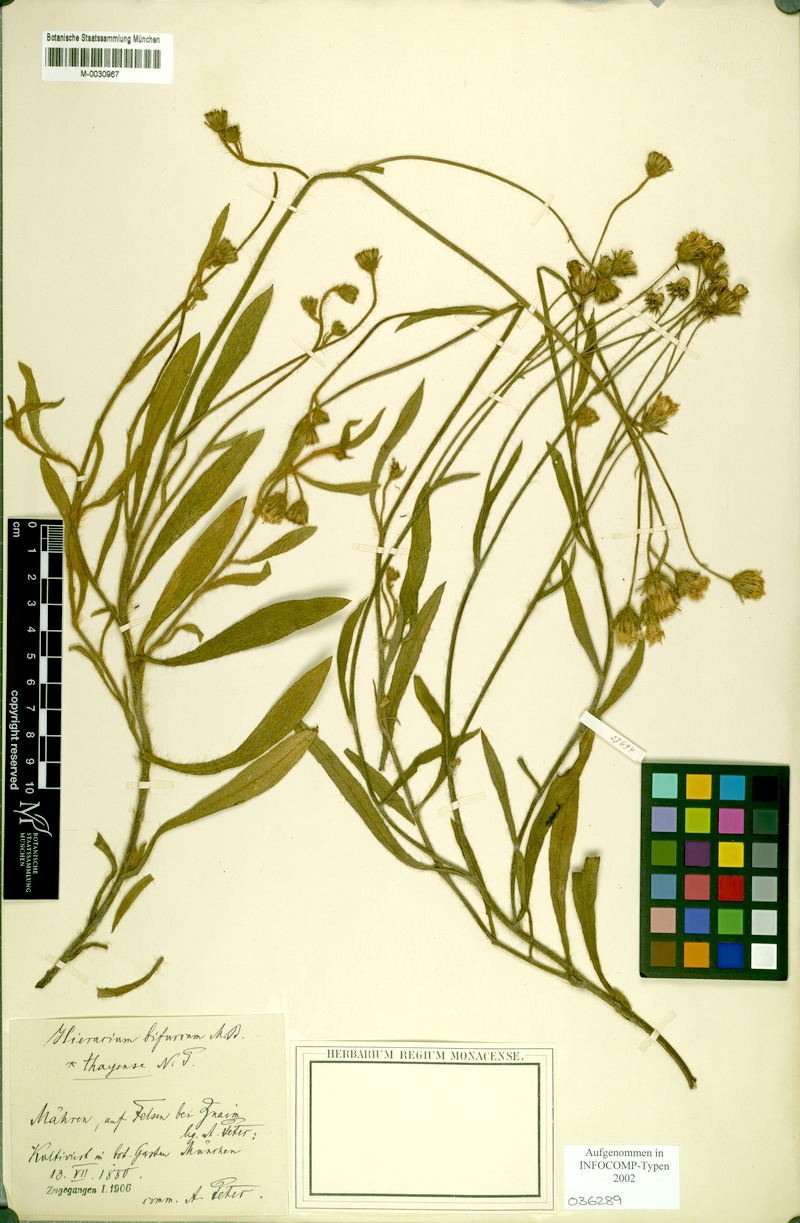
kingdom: Plantae
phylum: Tracheophyta
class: Magnoliopsida
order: Asterales
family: Asteraceae
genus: Pilosella
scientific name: Pilosella bifurca
